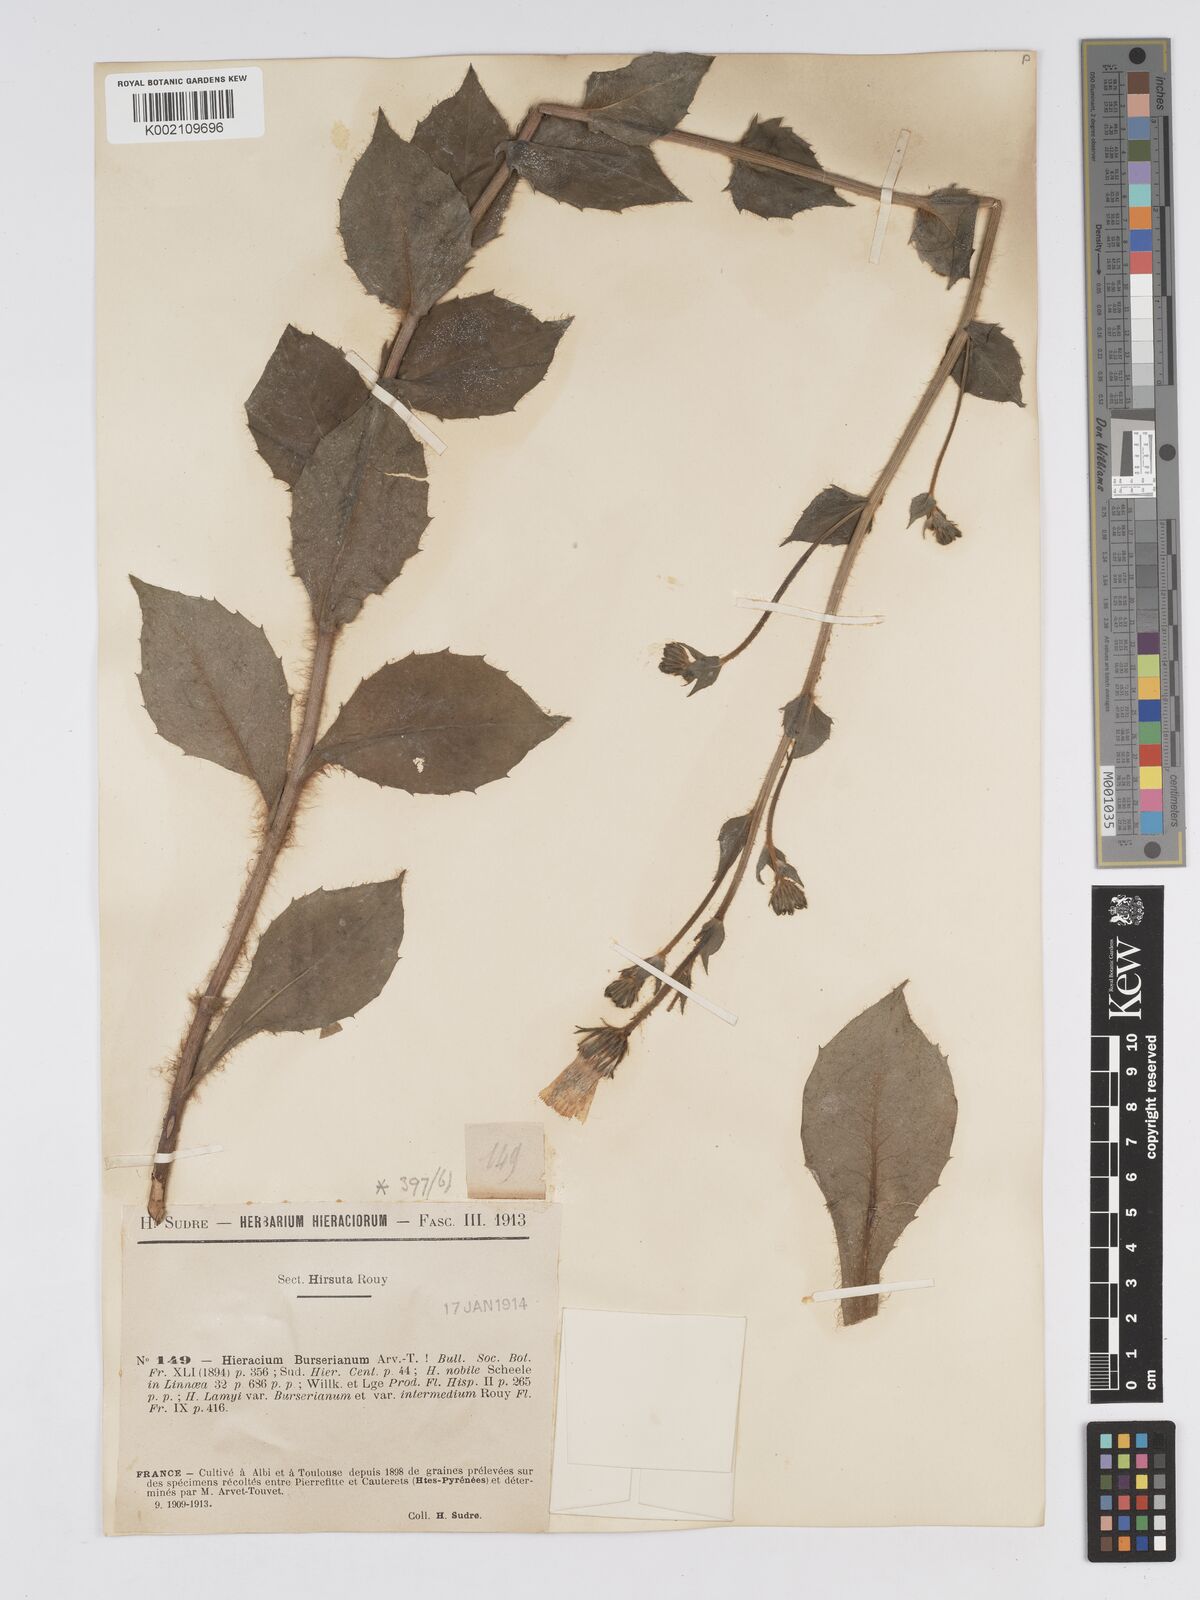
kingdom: Plantae
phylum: Tracheophyta
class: Magnoliopsida
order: Asterales
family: Asteraceae
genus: Hieracium
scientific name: Hieracium nobile
